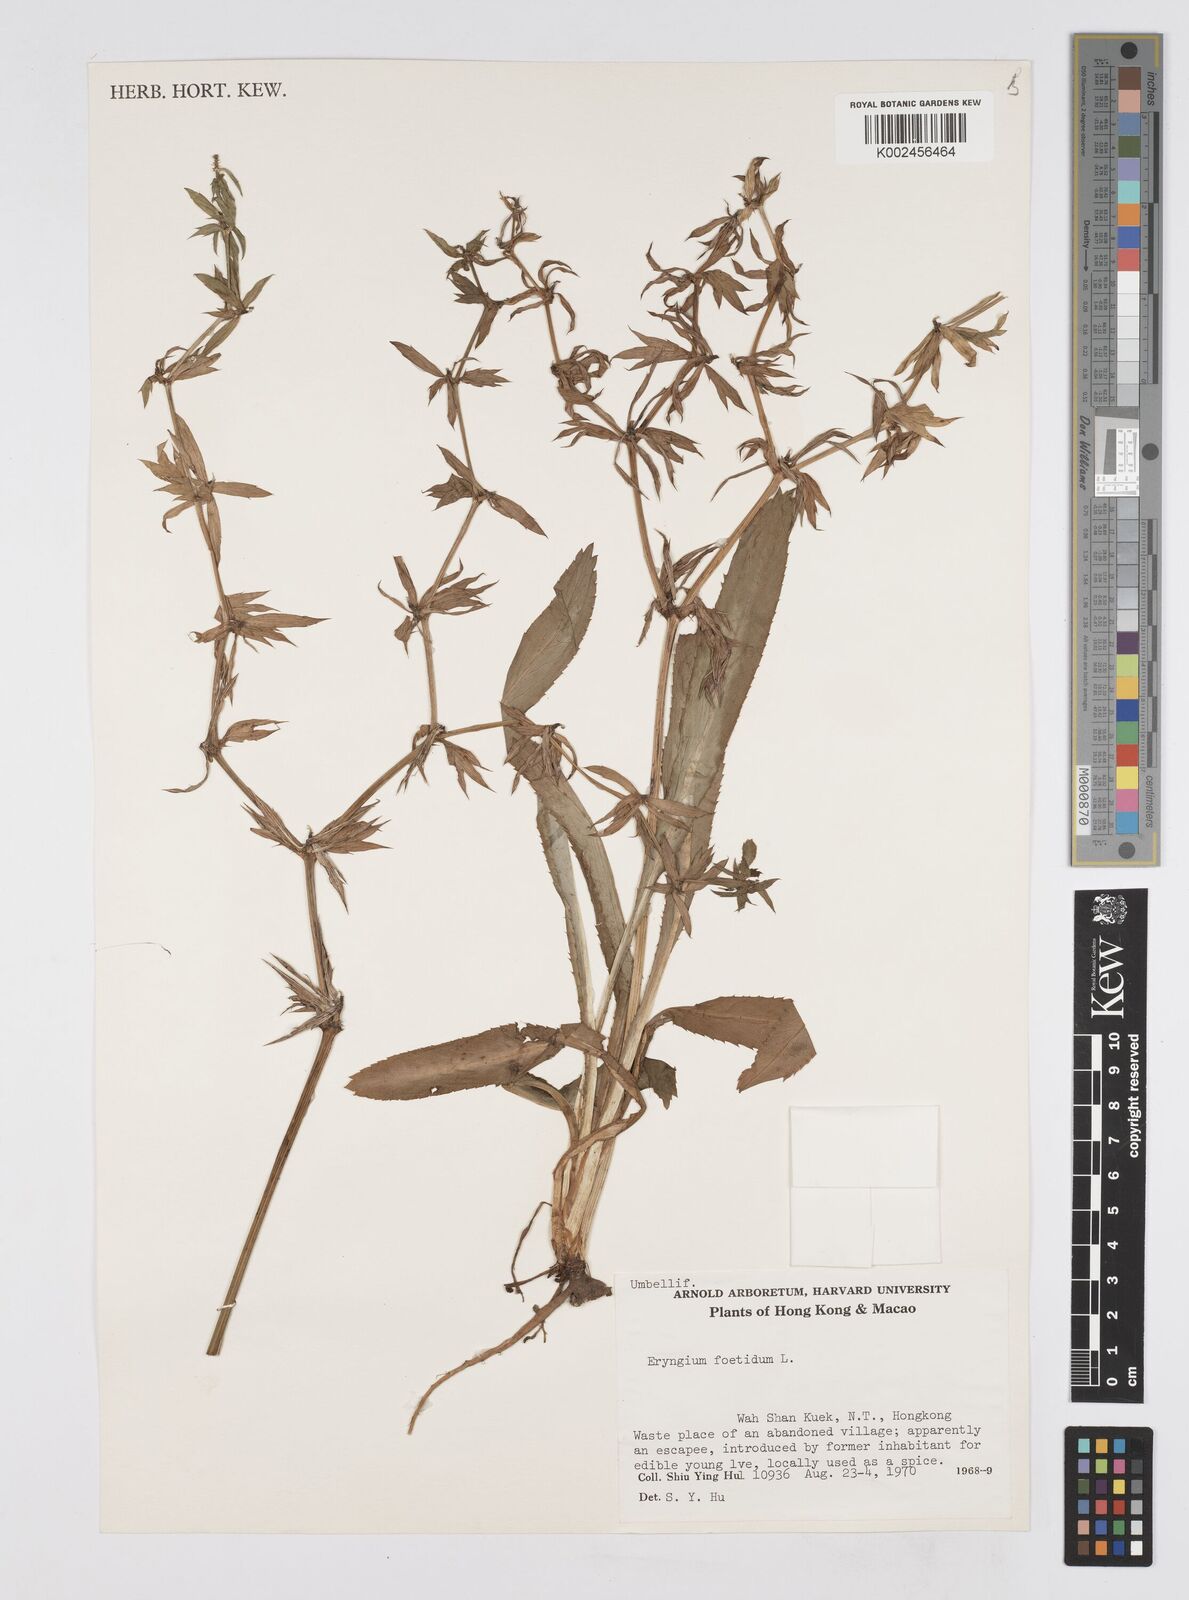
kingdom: Plantae
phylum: Tracheophyta
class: Magnoliopsida
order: Apiales
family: Apiaceae
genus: Eryngium
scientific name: Eryngium foetidum
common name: Fitweed
